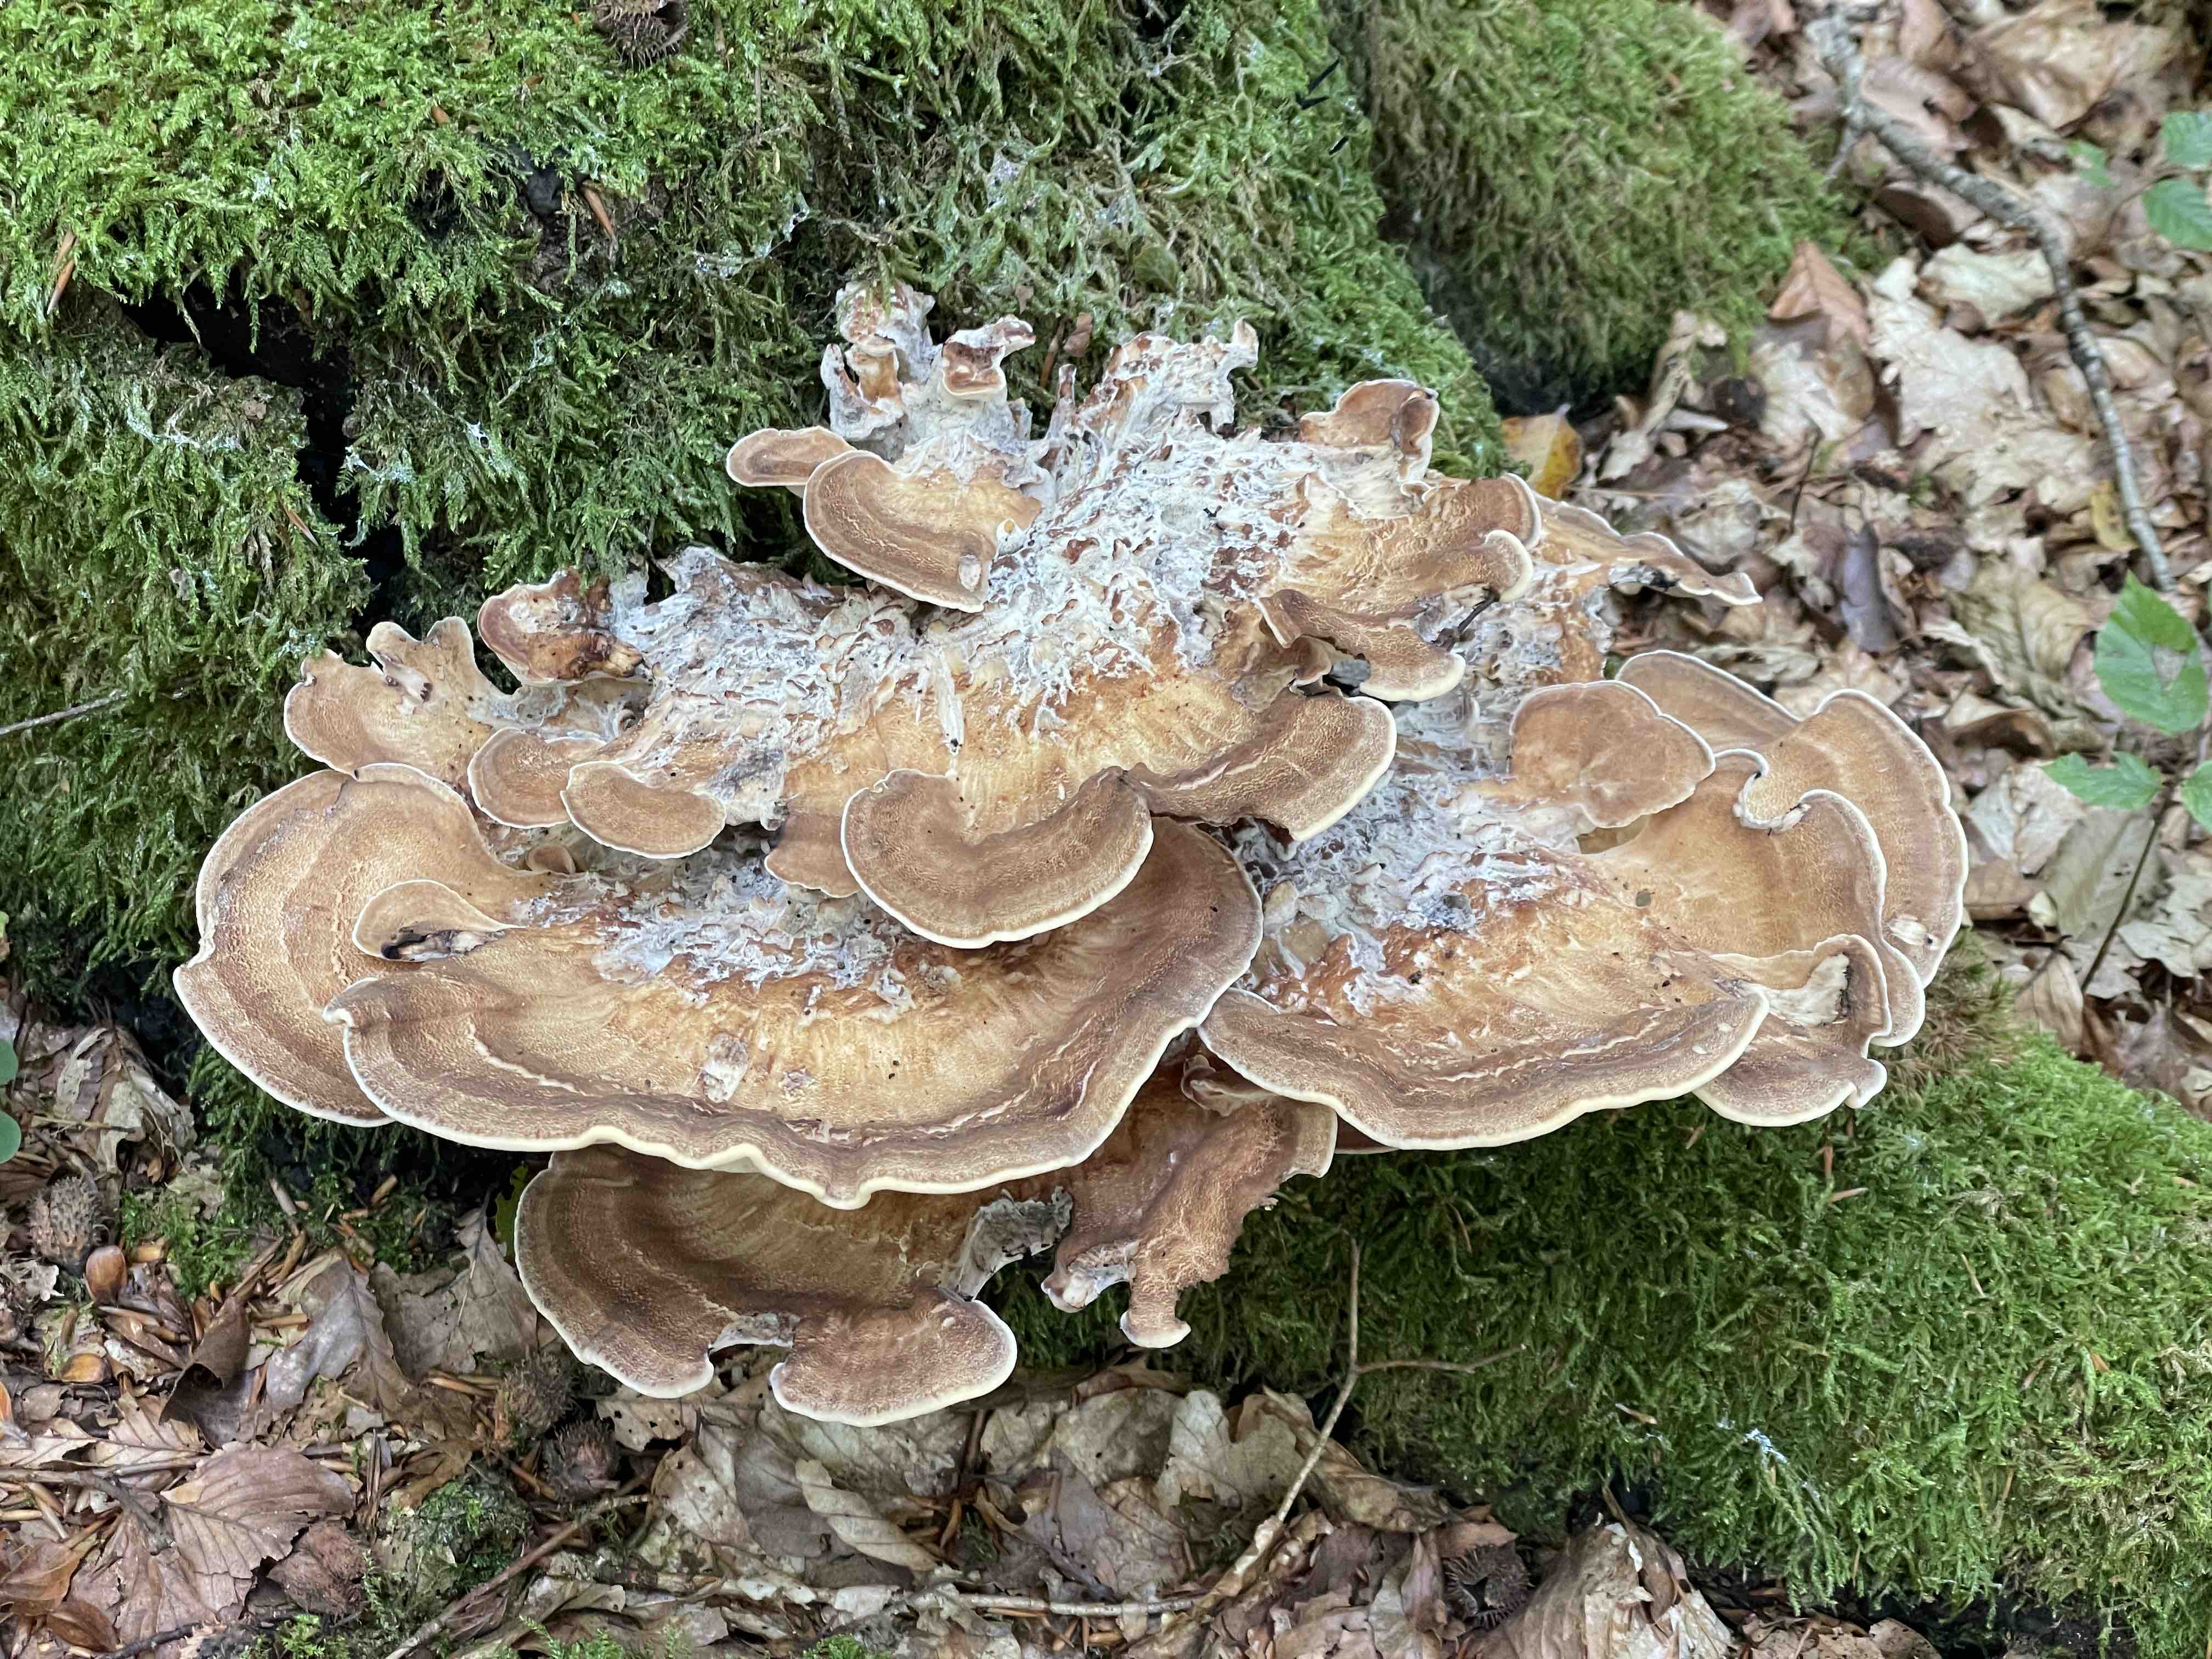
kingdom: Fungi
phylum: Basidiomycota
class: Agaricomycetes
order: Polyporales
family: Meripilaceae
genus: Meripilus
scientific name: Meripilus giganteus
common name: kæmpeporesvamp
